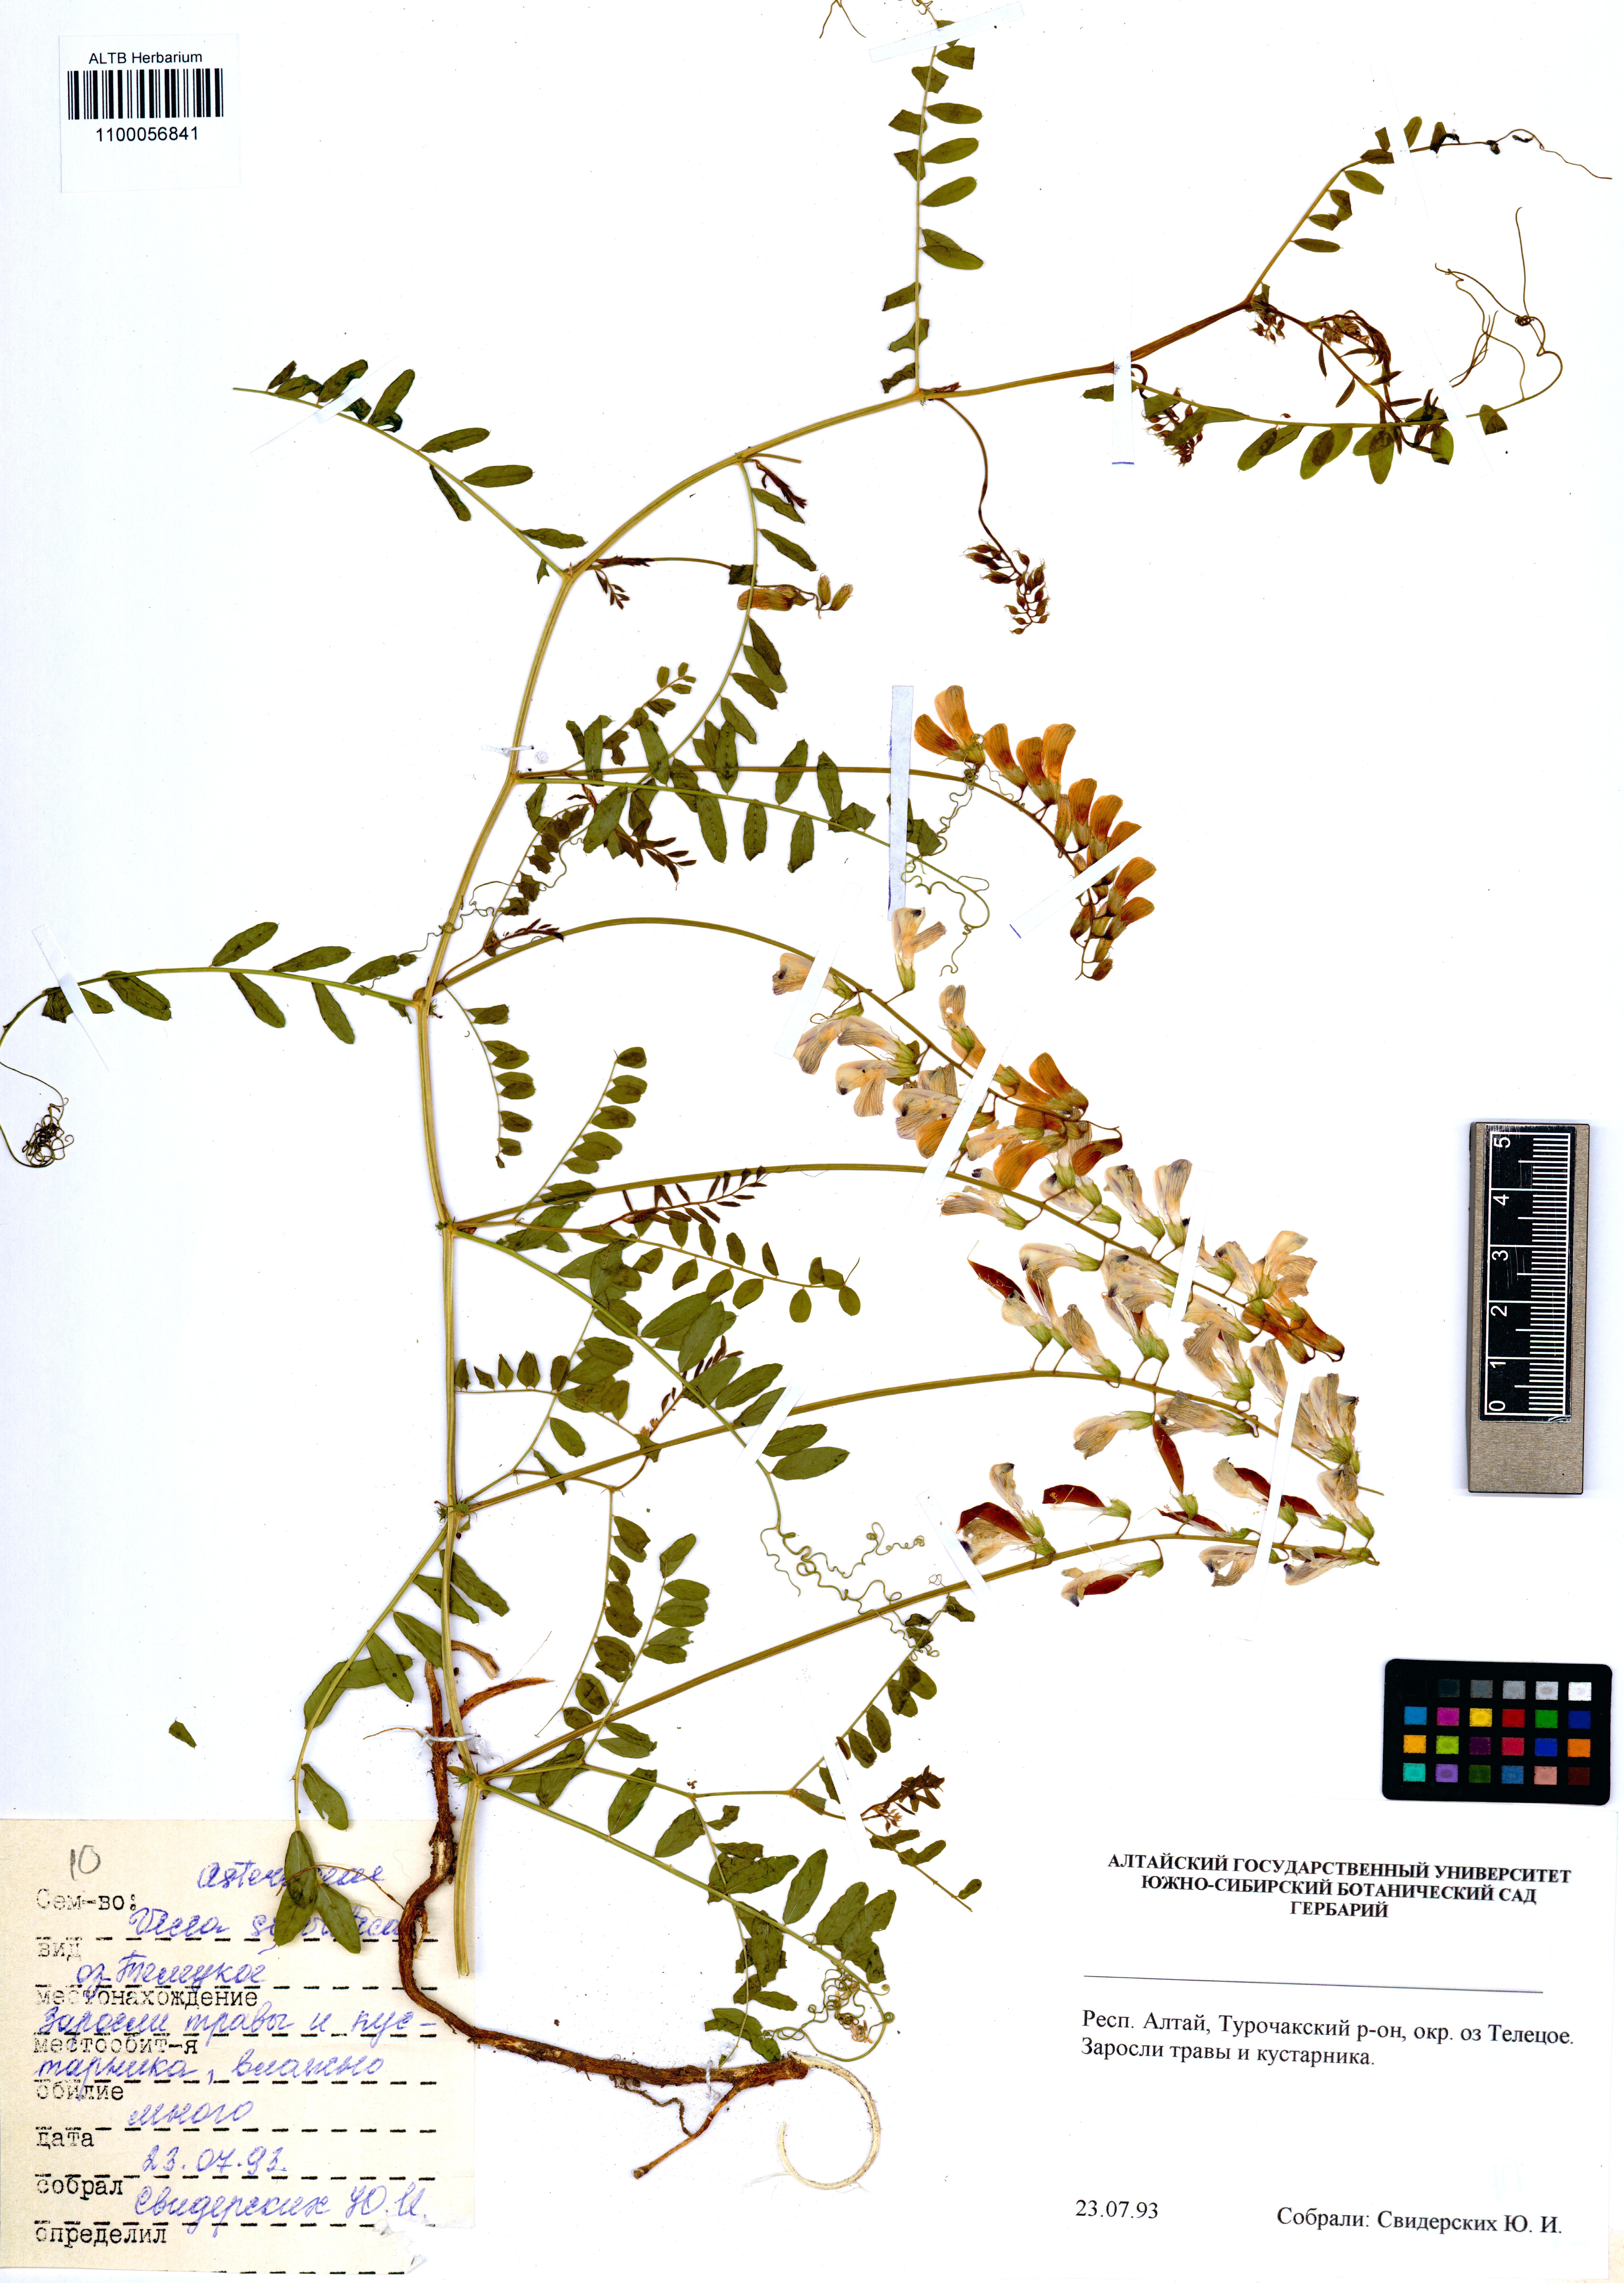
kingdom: Plantae
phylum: Tracheophyta
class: Magnoliopsida
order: Fabales
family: Fabaceae
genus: Vicia
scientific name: Vicia sylvatica
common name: Wood vetch
